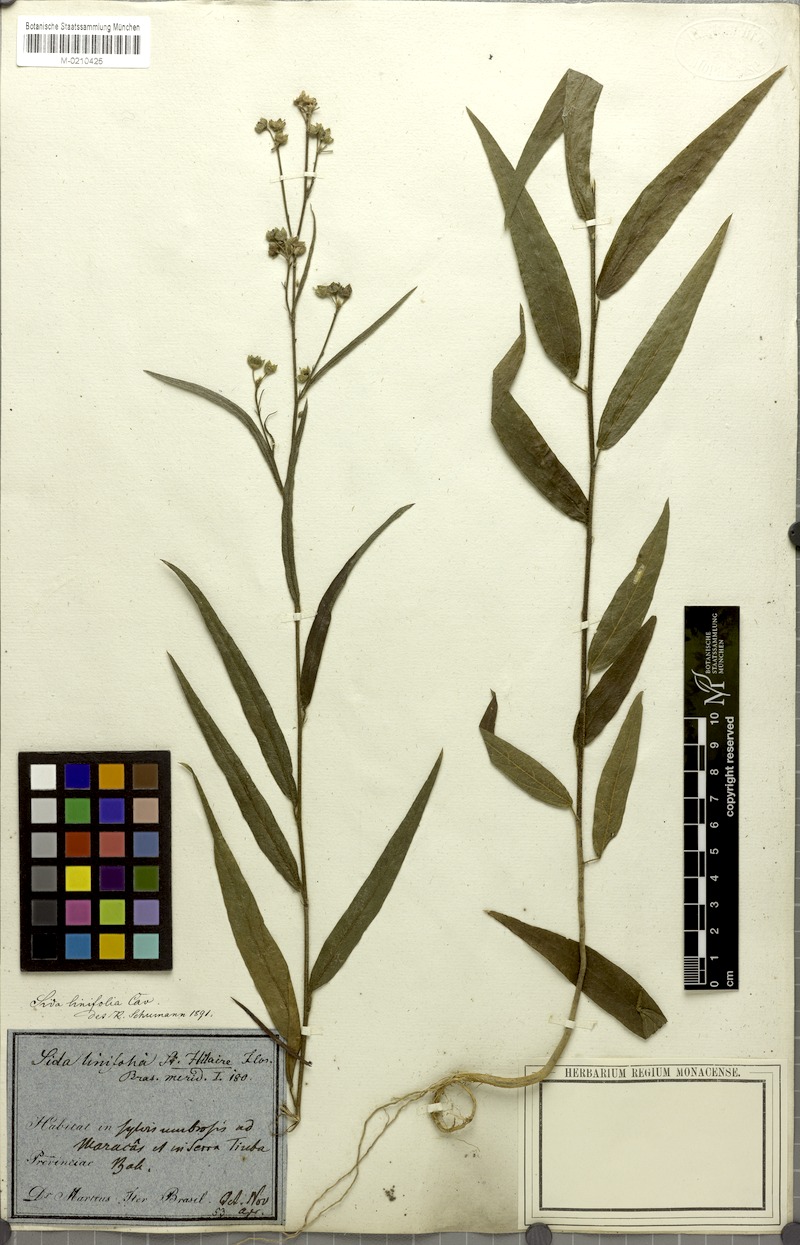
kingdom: Plantae
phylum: Tracheophyta
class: Magnoliopsida
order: Malvales
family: Malvaceae
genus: Sida
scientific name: Sida linifolia
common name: Flaxleaf fanpetals
